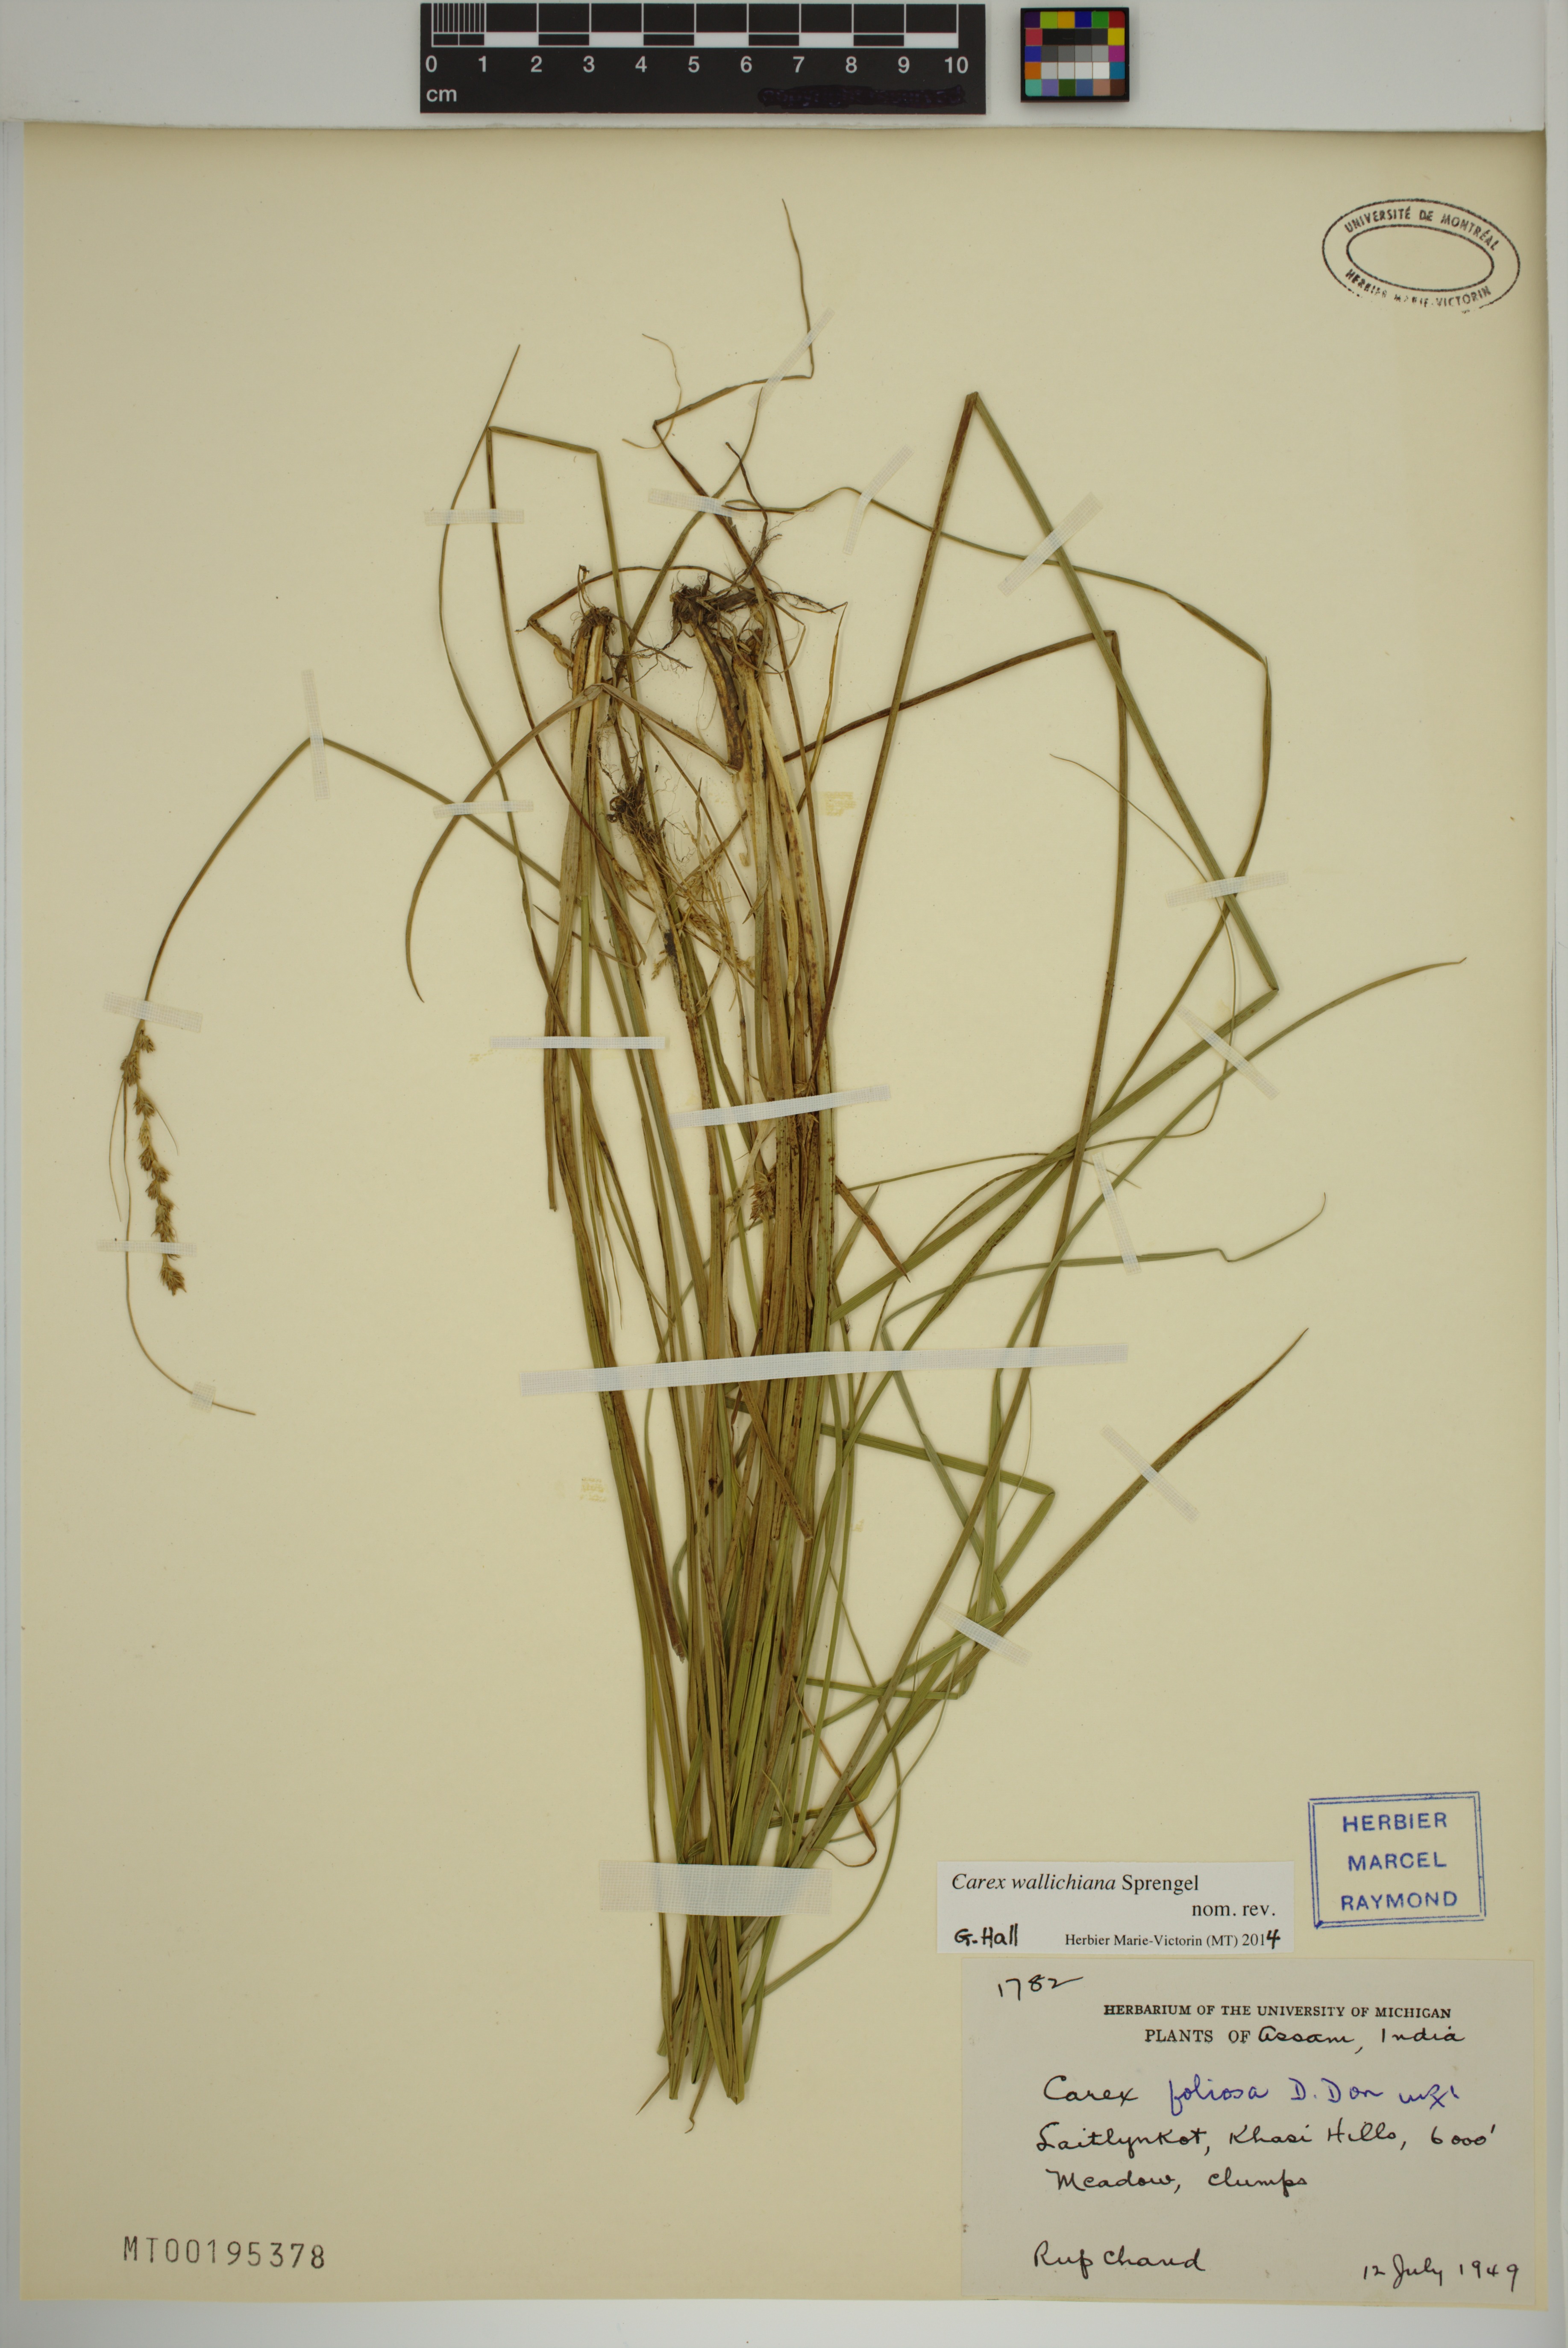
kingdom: Plantae
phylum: Tracheophyta
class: Liliopsida
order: Poales
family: Cyperaceae
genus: Carex
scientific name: Carex wallichiana
